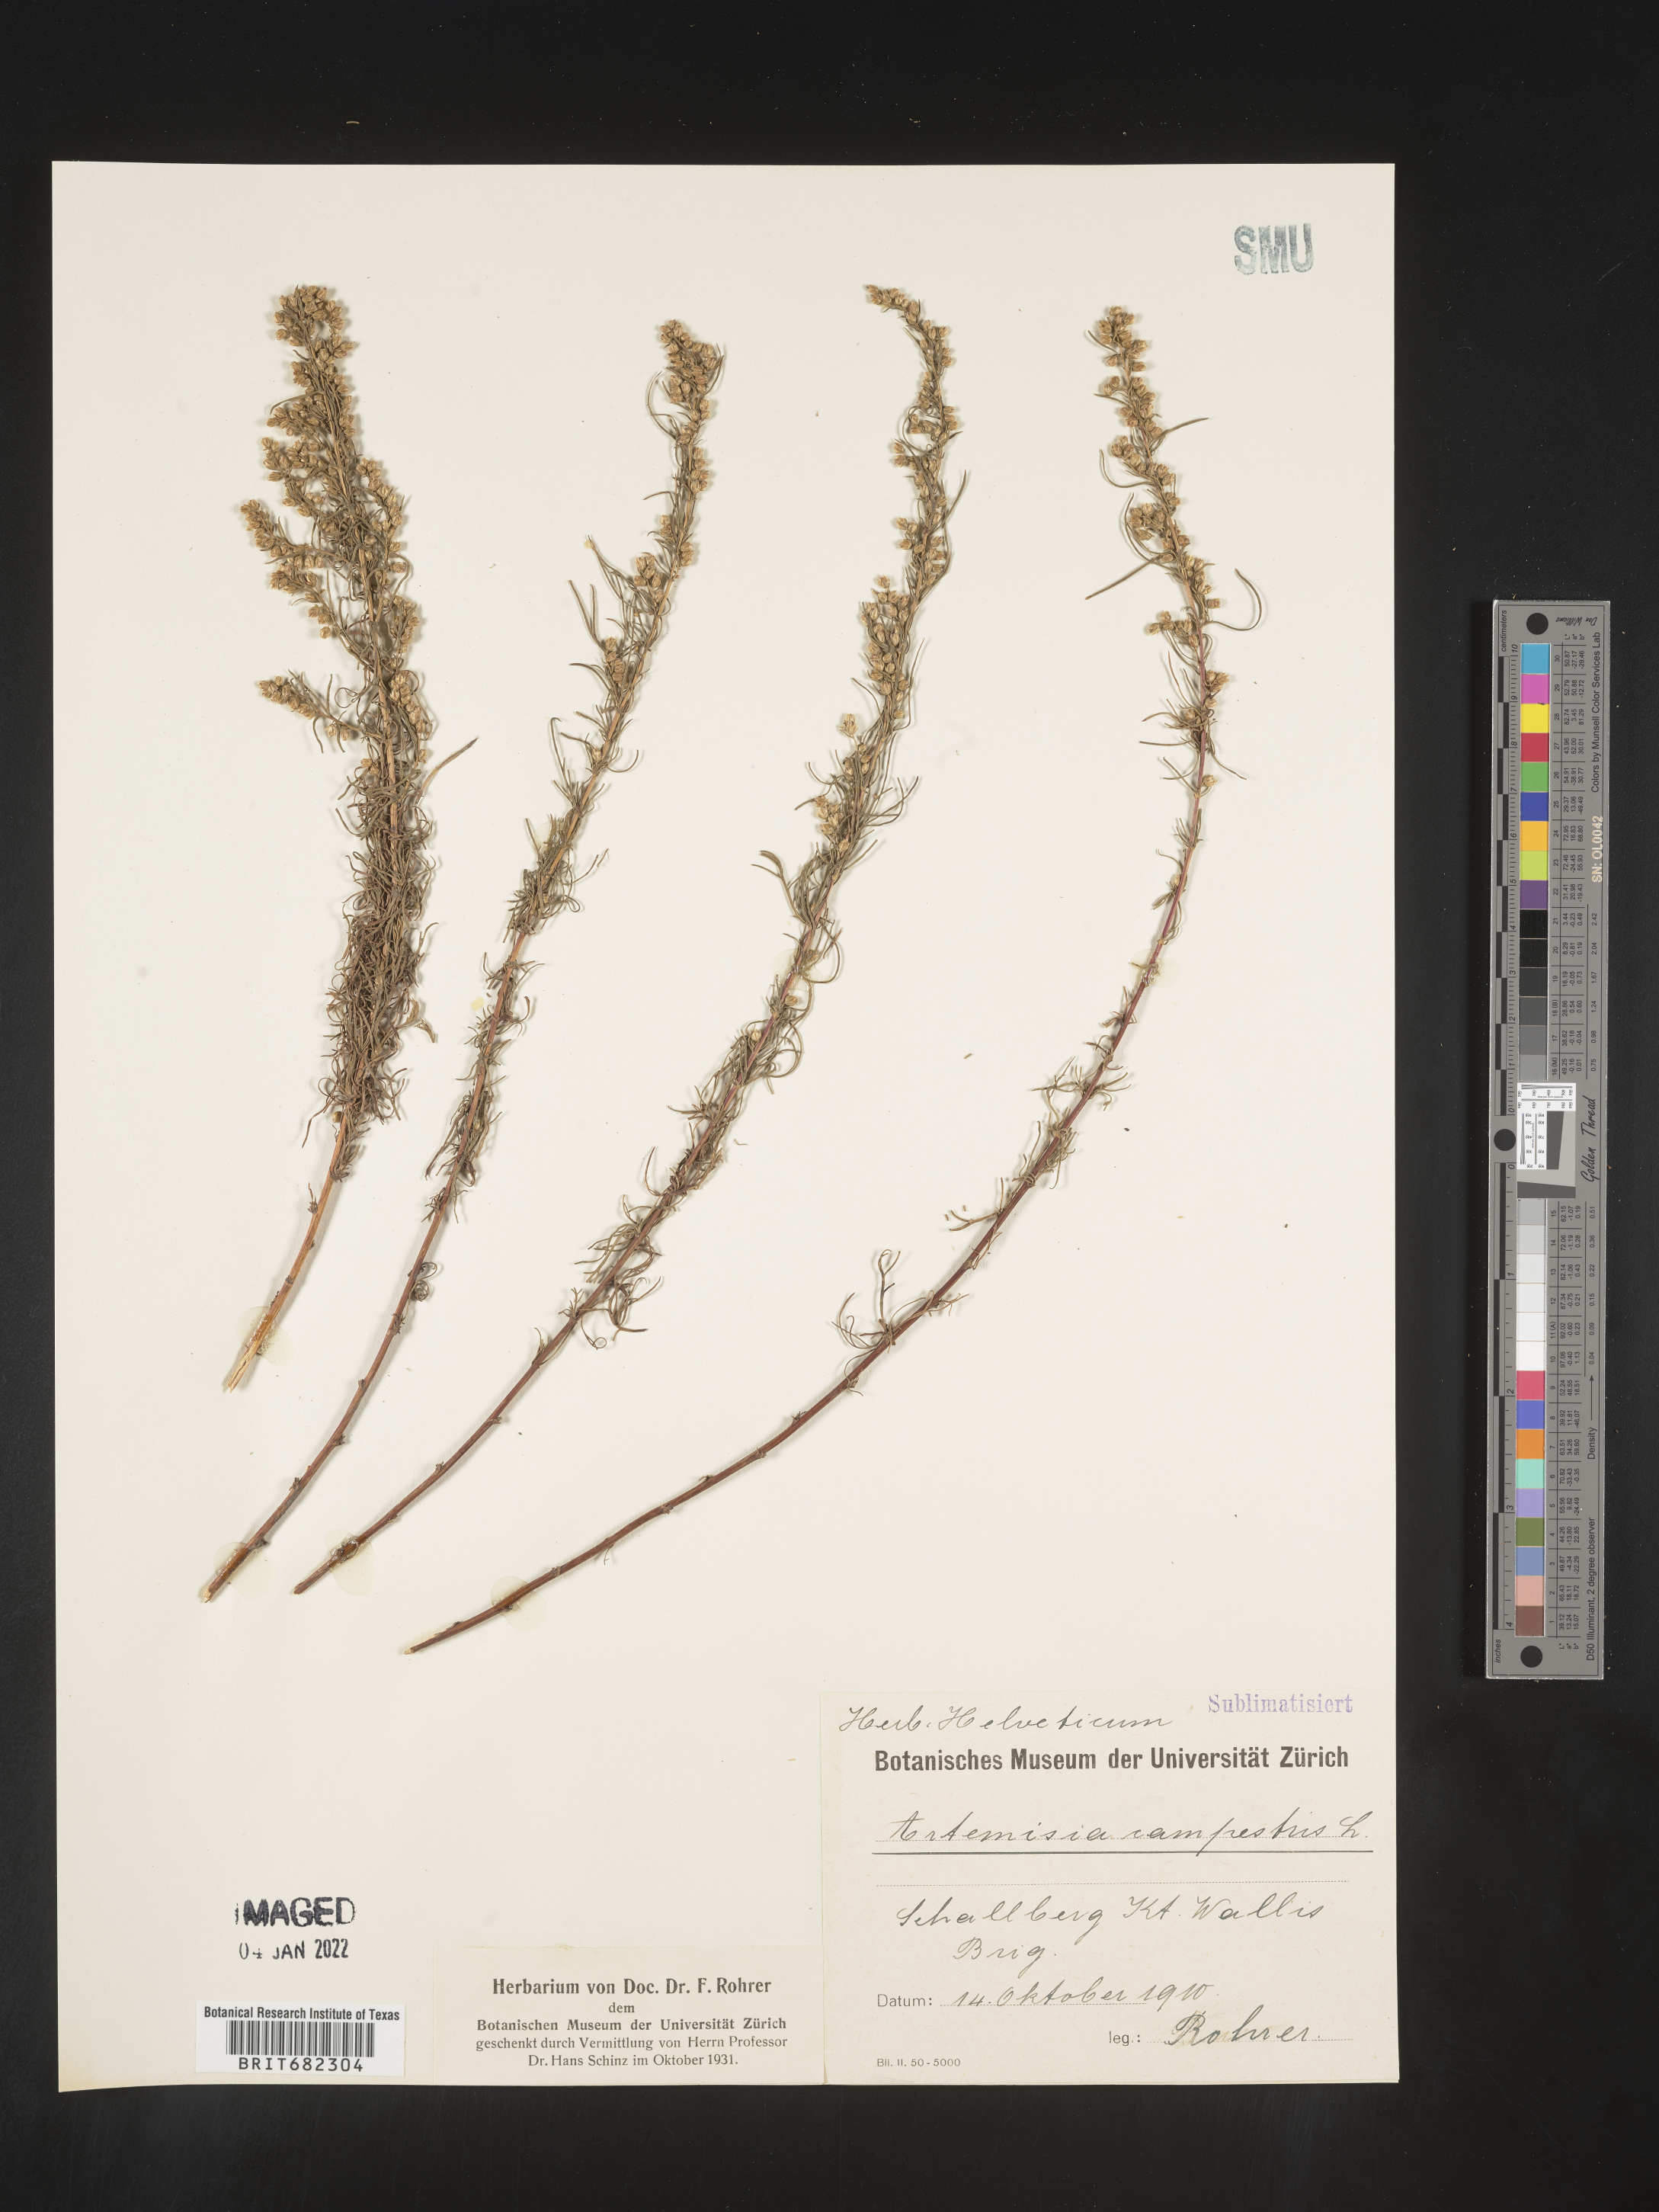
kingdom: Plantae
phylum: Tracheophyta
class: Magnoliopsida
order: Asterales
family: Asteraceae
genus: Artemisia
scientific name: Artemisia campestris
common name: Field wormwood
